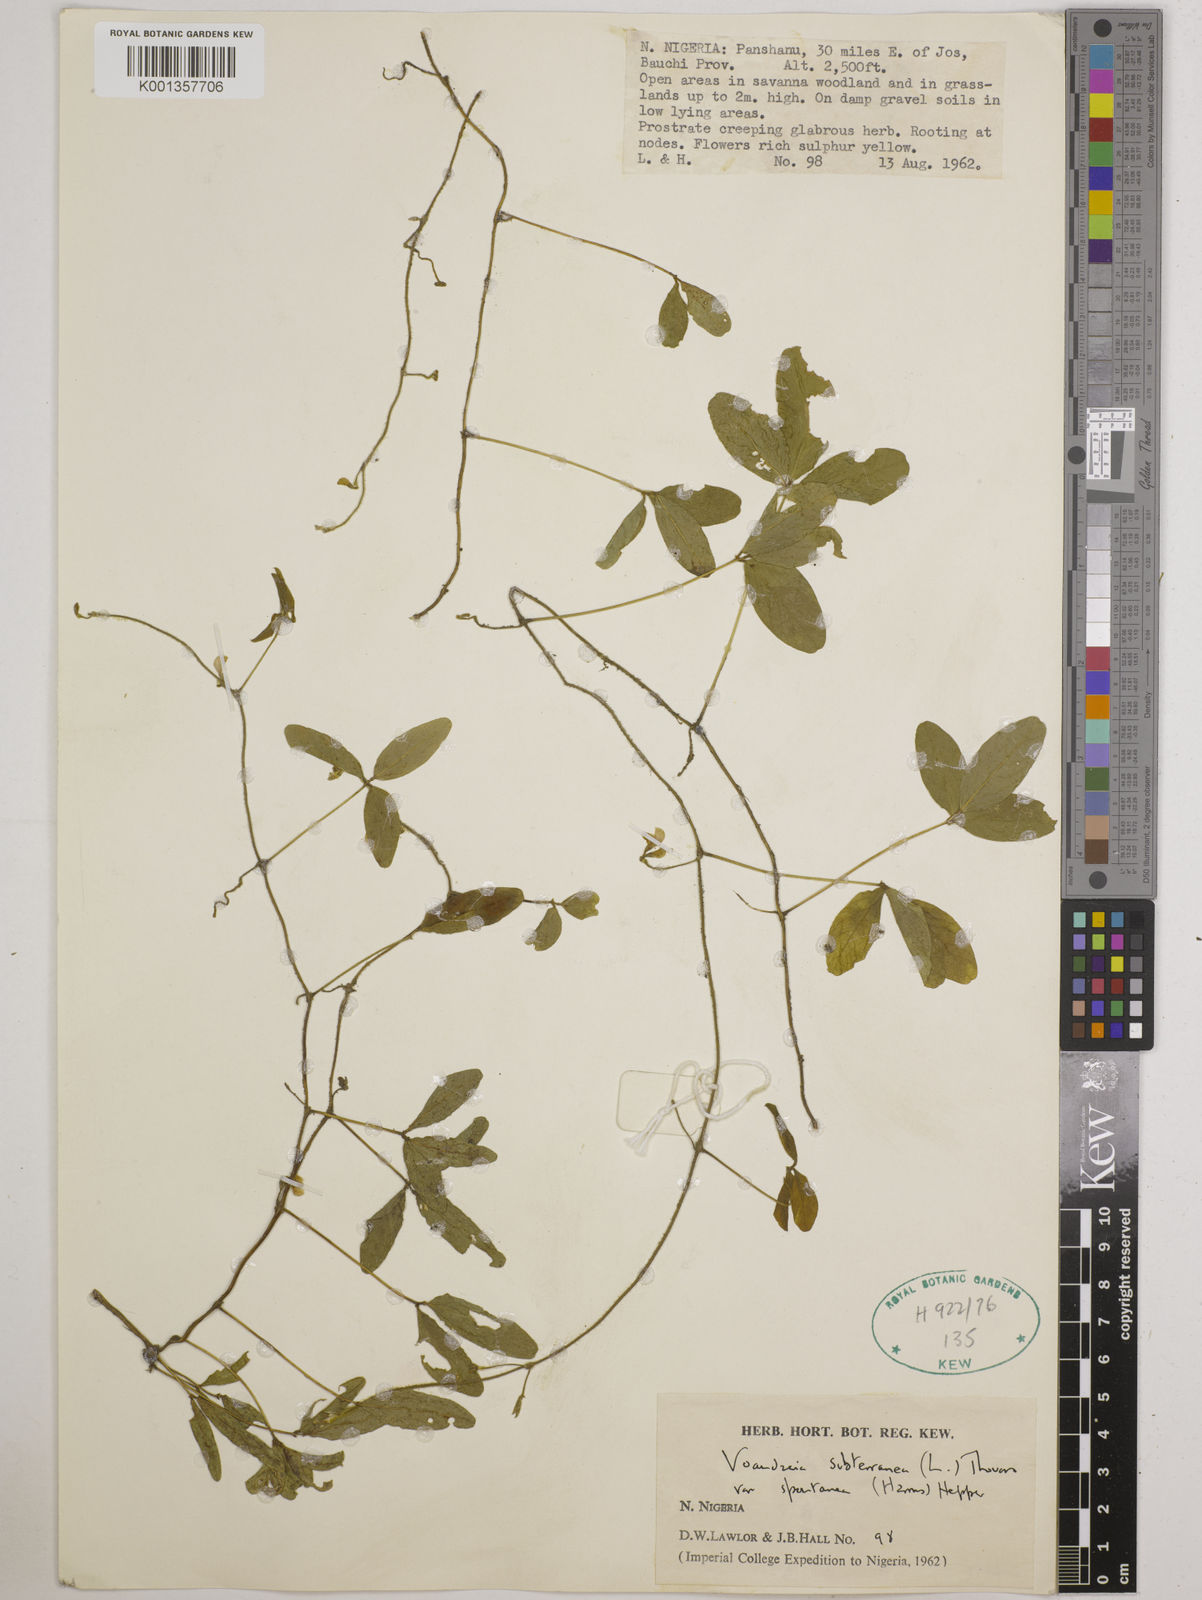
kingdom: Plantae
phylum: Tracheophyta
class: Magnoliopsida
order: Fabales
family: Fabaceae
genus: Vigna
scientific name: Vigna subterranea
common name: Bambara groundnut
